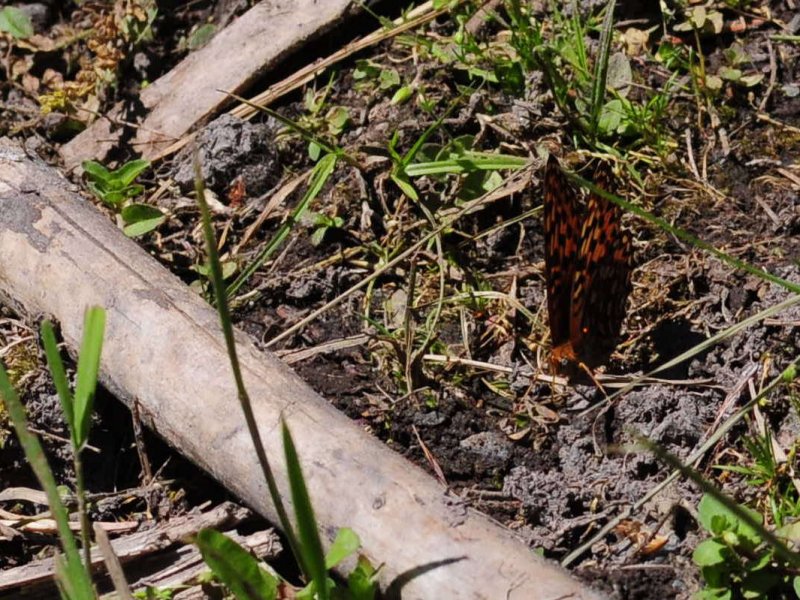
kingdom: Animalia
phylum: Arthropoda
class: Insecta
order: Lepidoptera
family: Nymphalidae
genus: Speyeria
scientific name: Speyeria hydaspe
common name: Hydaspe Fritillary
